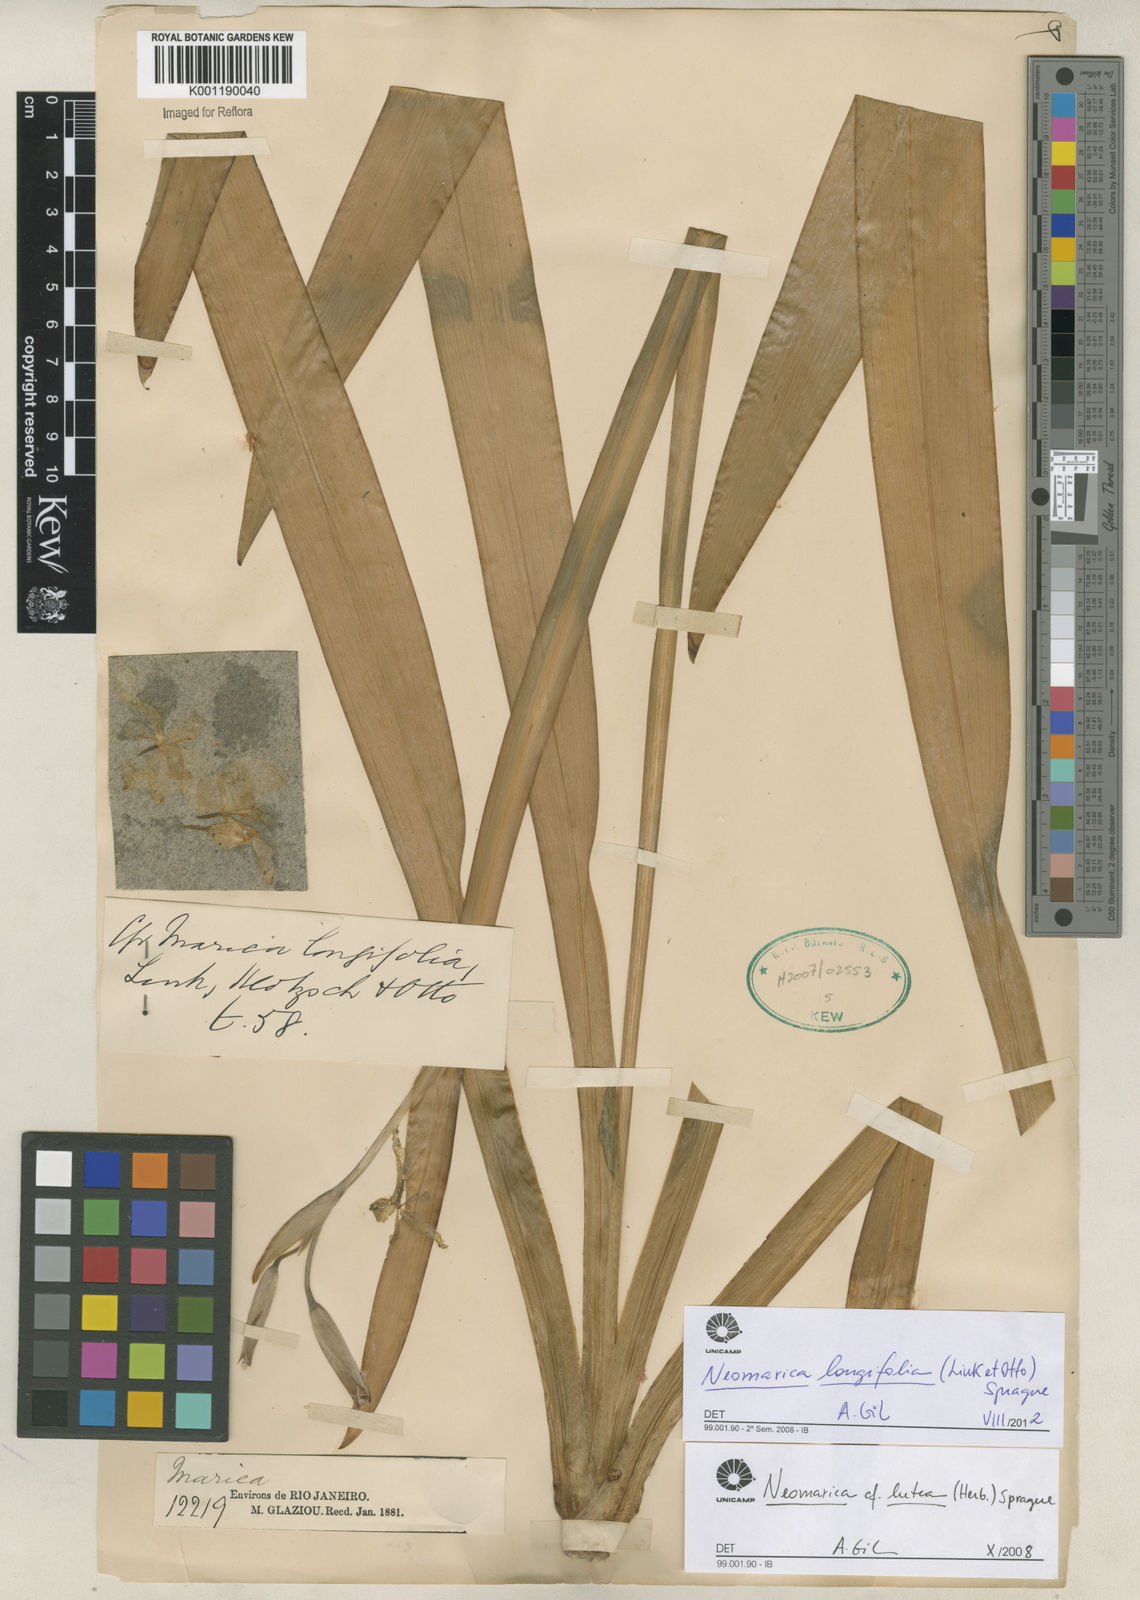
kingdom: Plantae
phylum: Tracheophyta
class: Liliopsida
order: Asparagales
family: Iridaceae
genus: Trimezia
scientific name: Trimezia longifolia
